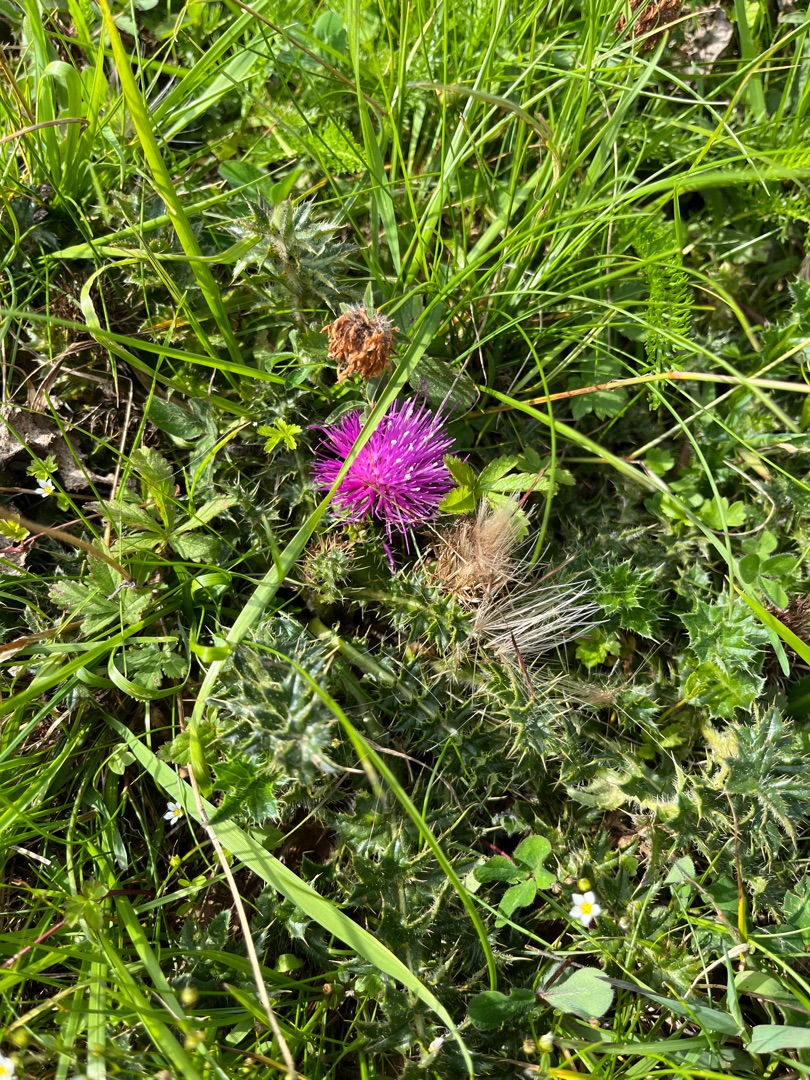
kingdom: Plantae
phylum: Tracheophyta
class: Magnoliopsida
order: Asterales
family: Asteraceae
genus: Cirsium
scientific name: Cirsium acaule
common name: Lav tidsel
